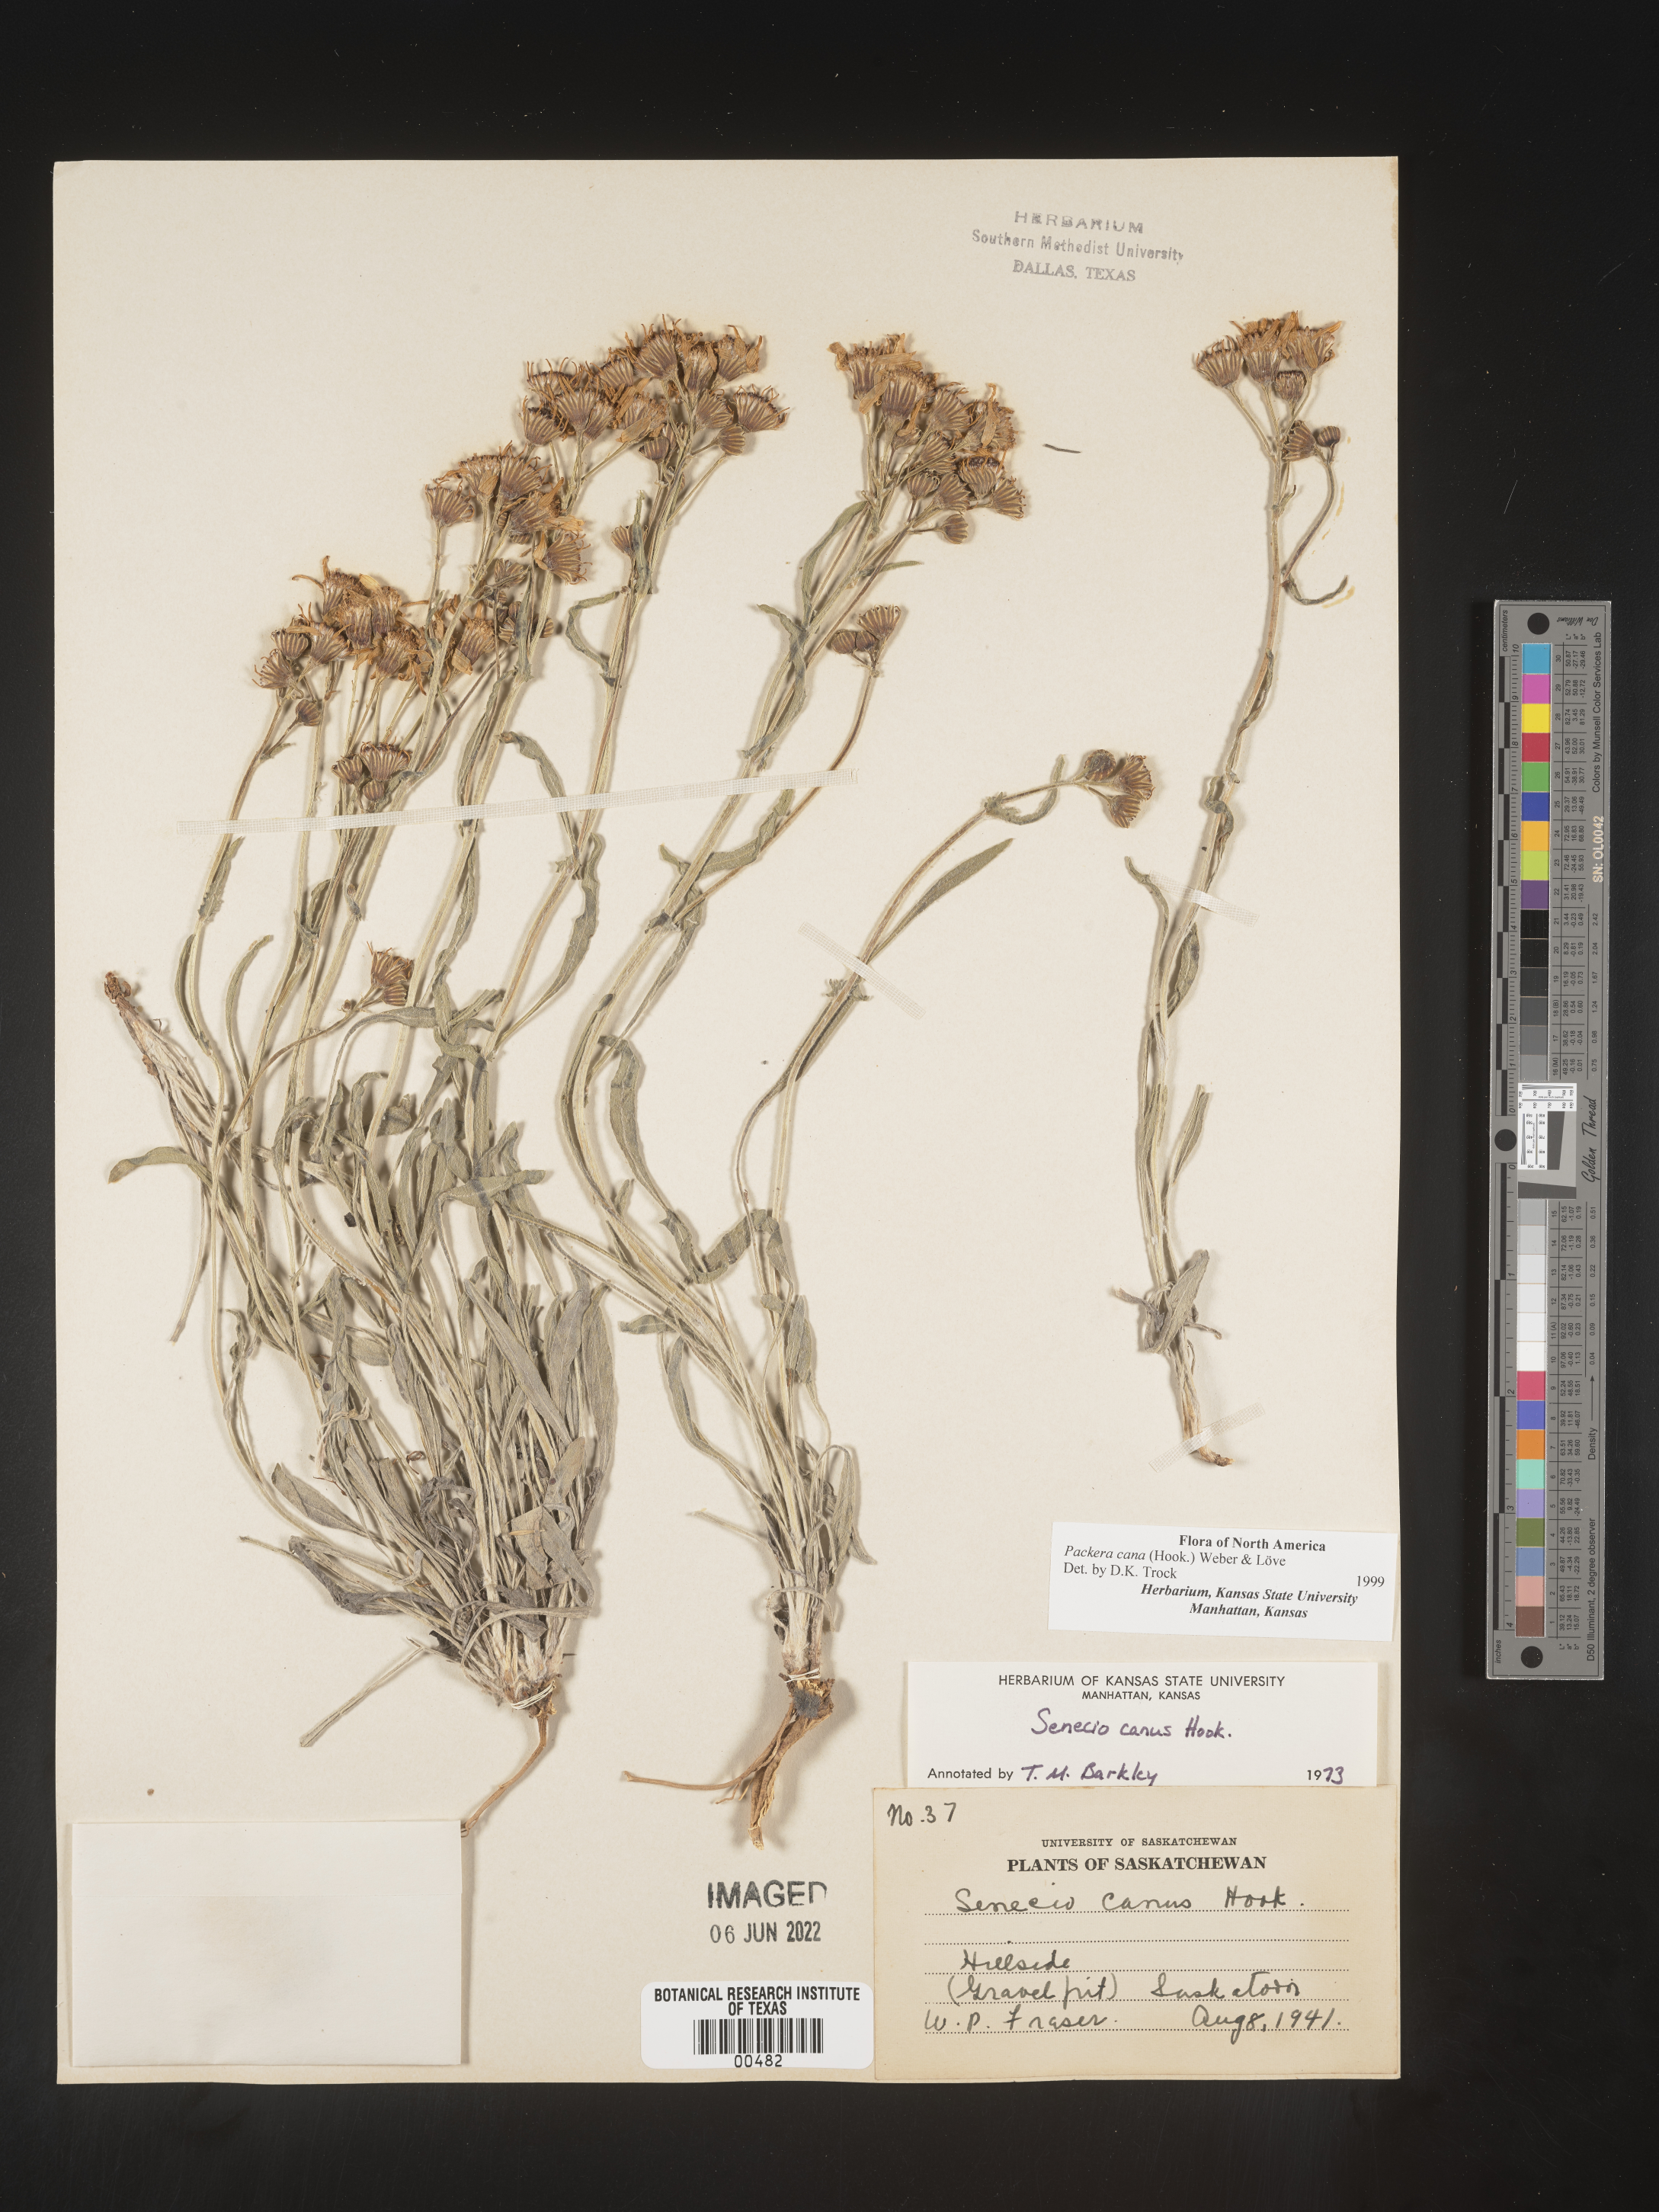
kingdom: Plantae
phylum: Tracheophyta
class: Magnoliopsida
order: Asterales
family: Asteraceae
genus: Packera
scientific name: Packera cana
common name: Woolly groundsel
